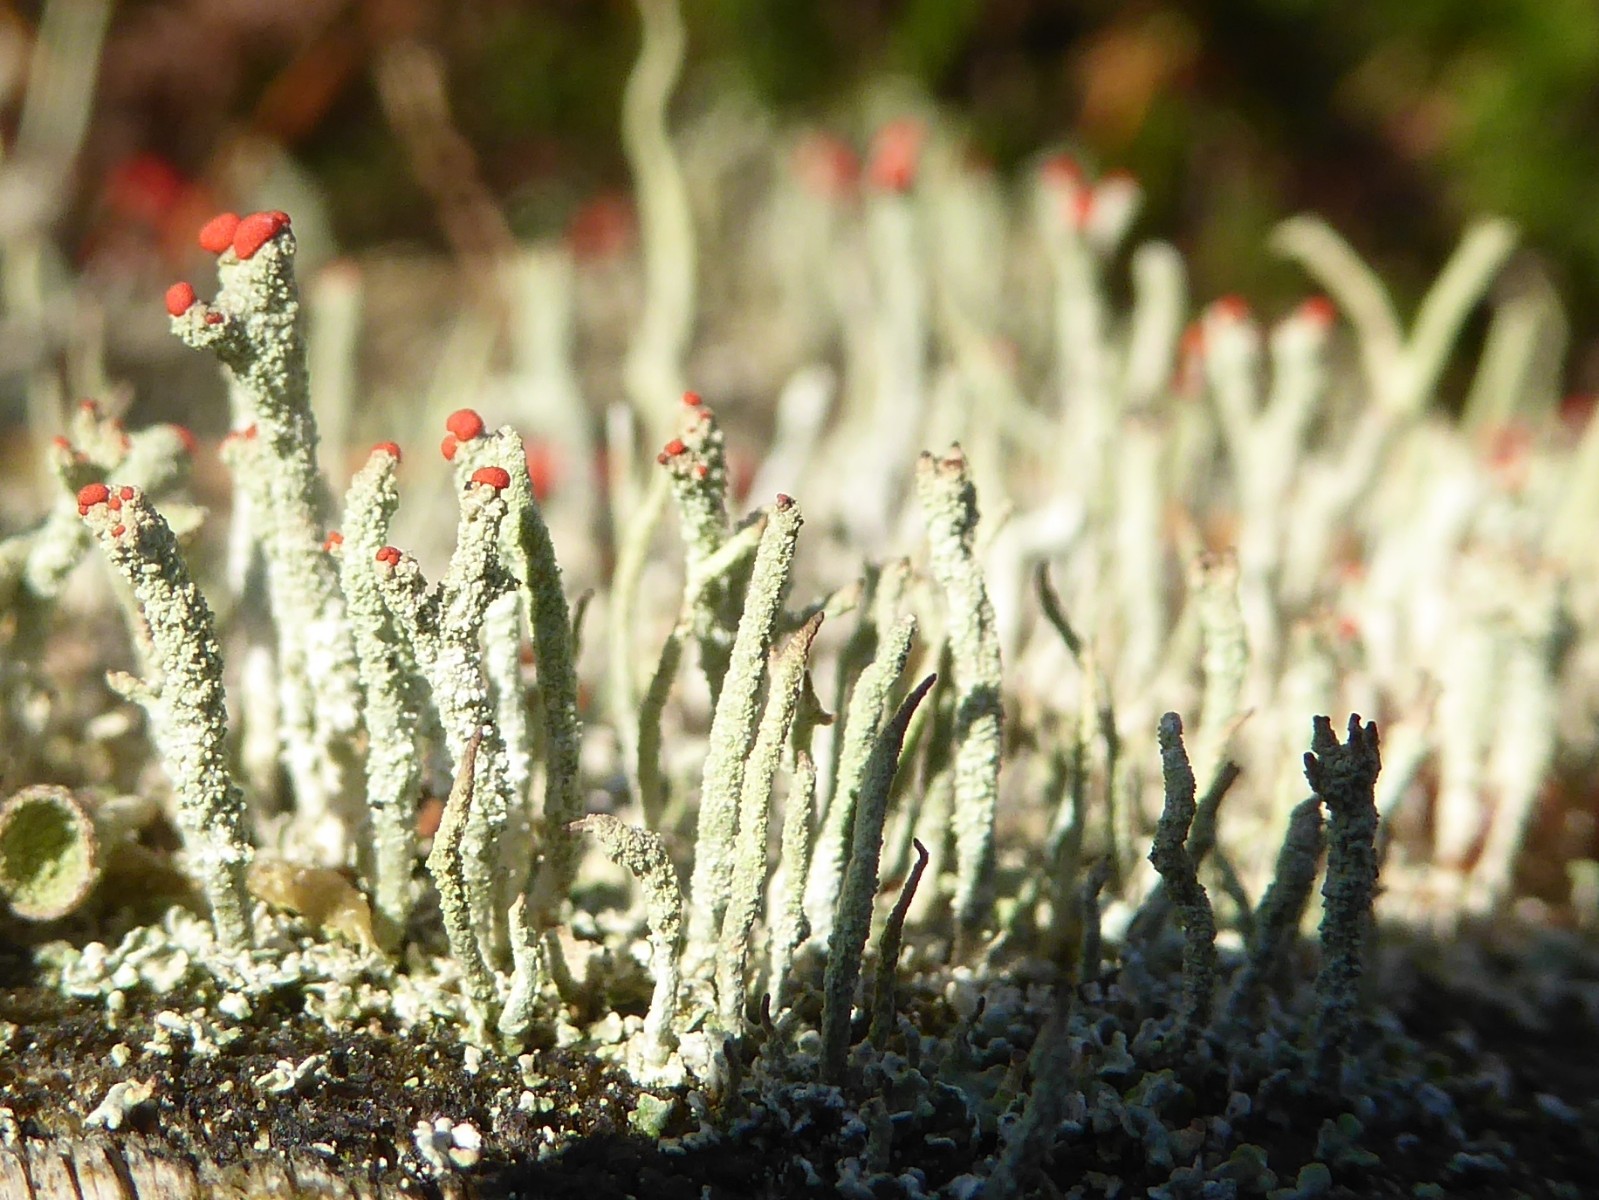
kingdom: Fungi
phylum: Ascomycota
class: Lecanoromycetes
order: Lecanorales
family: Cladoniaceae
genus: Cladonia
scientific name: Cladonia floerkeana
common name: lakrød bægerlav
